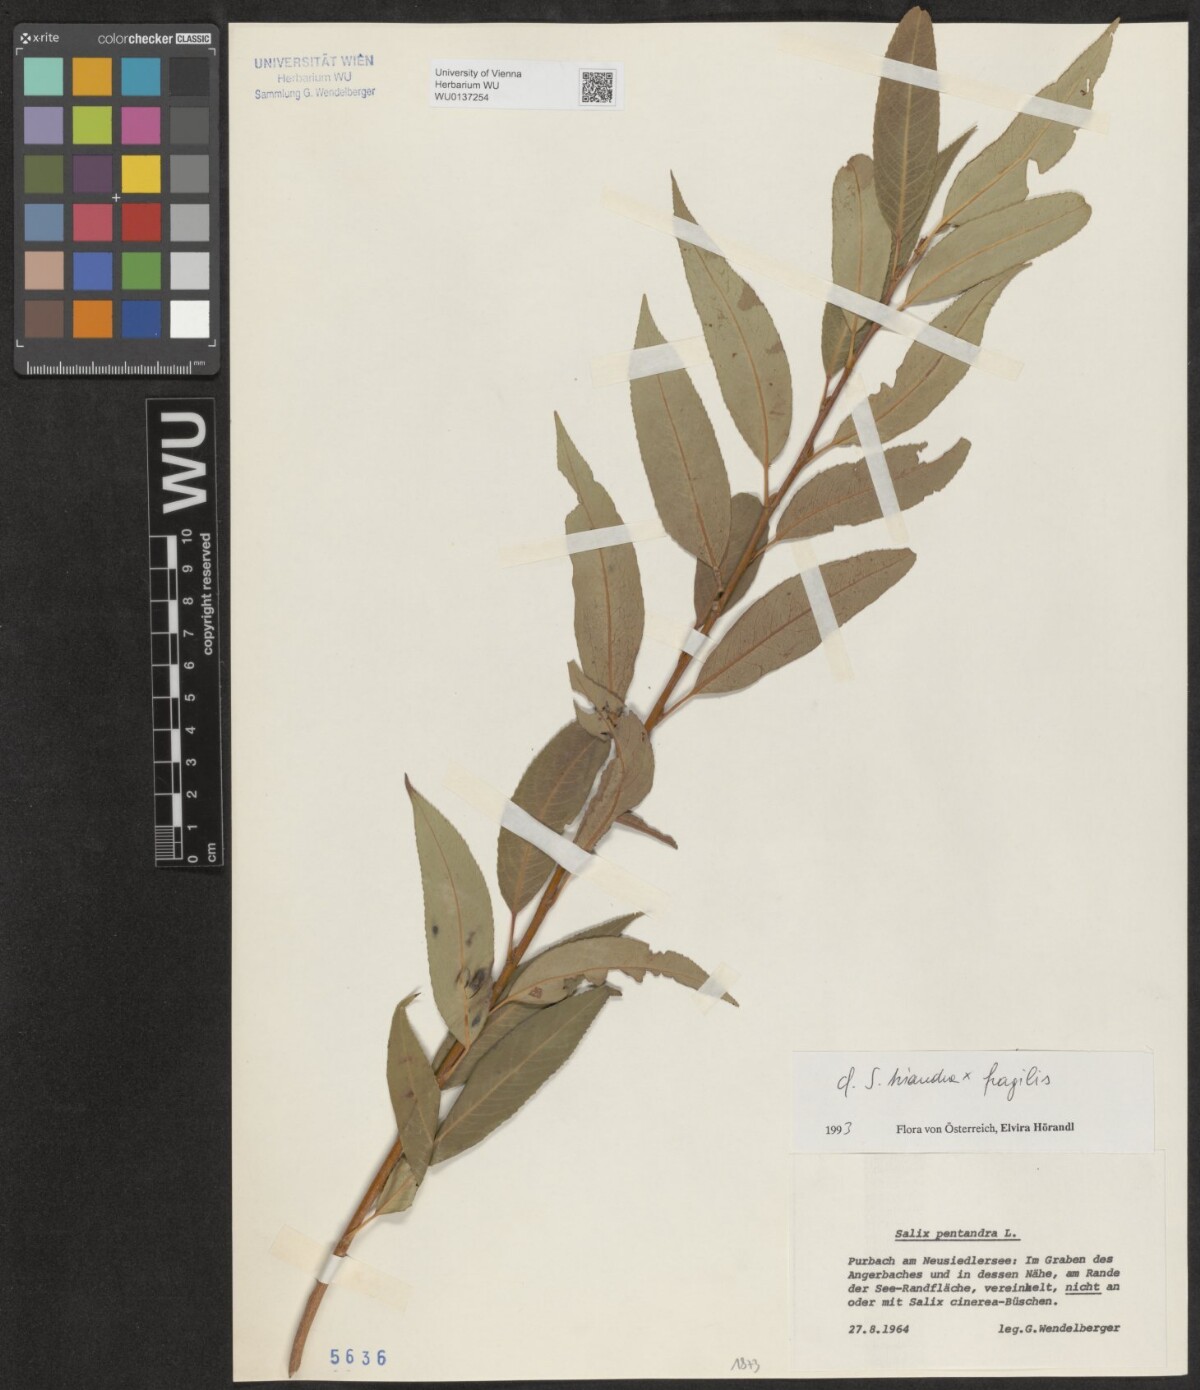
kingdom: Plantae
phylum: Tracheophyta
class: Magnoliopsida
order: Malpighiales
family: Salicaceae
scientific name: Salicaceae
